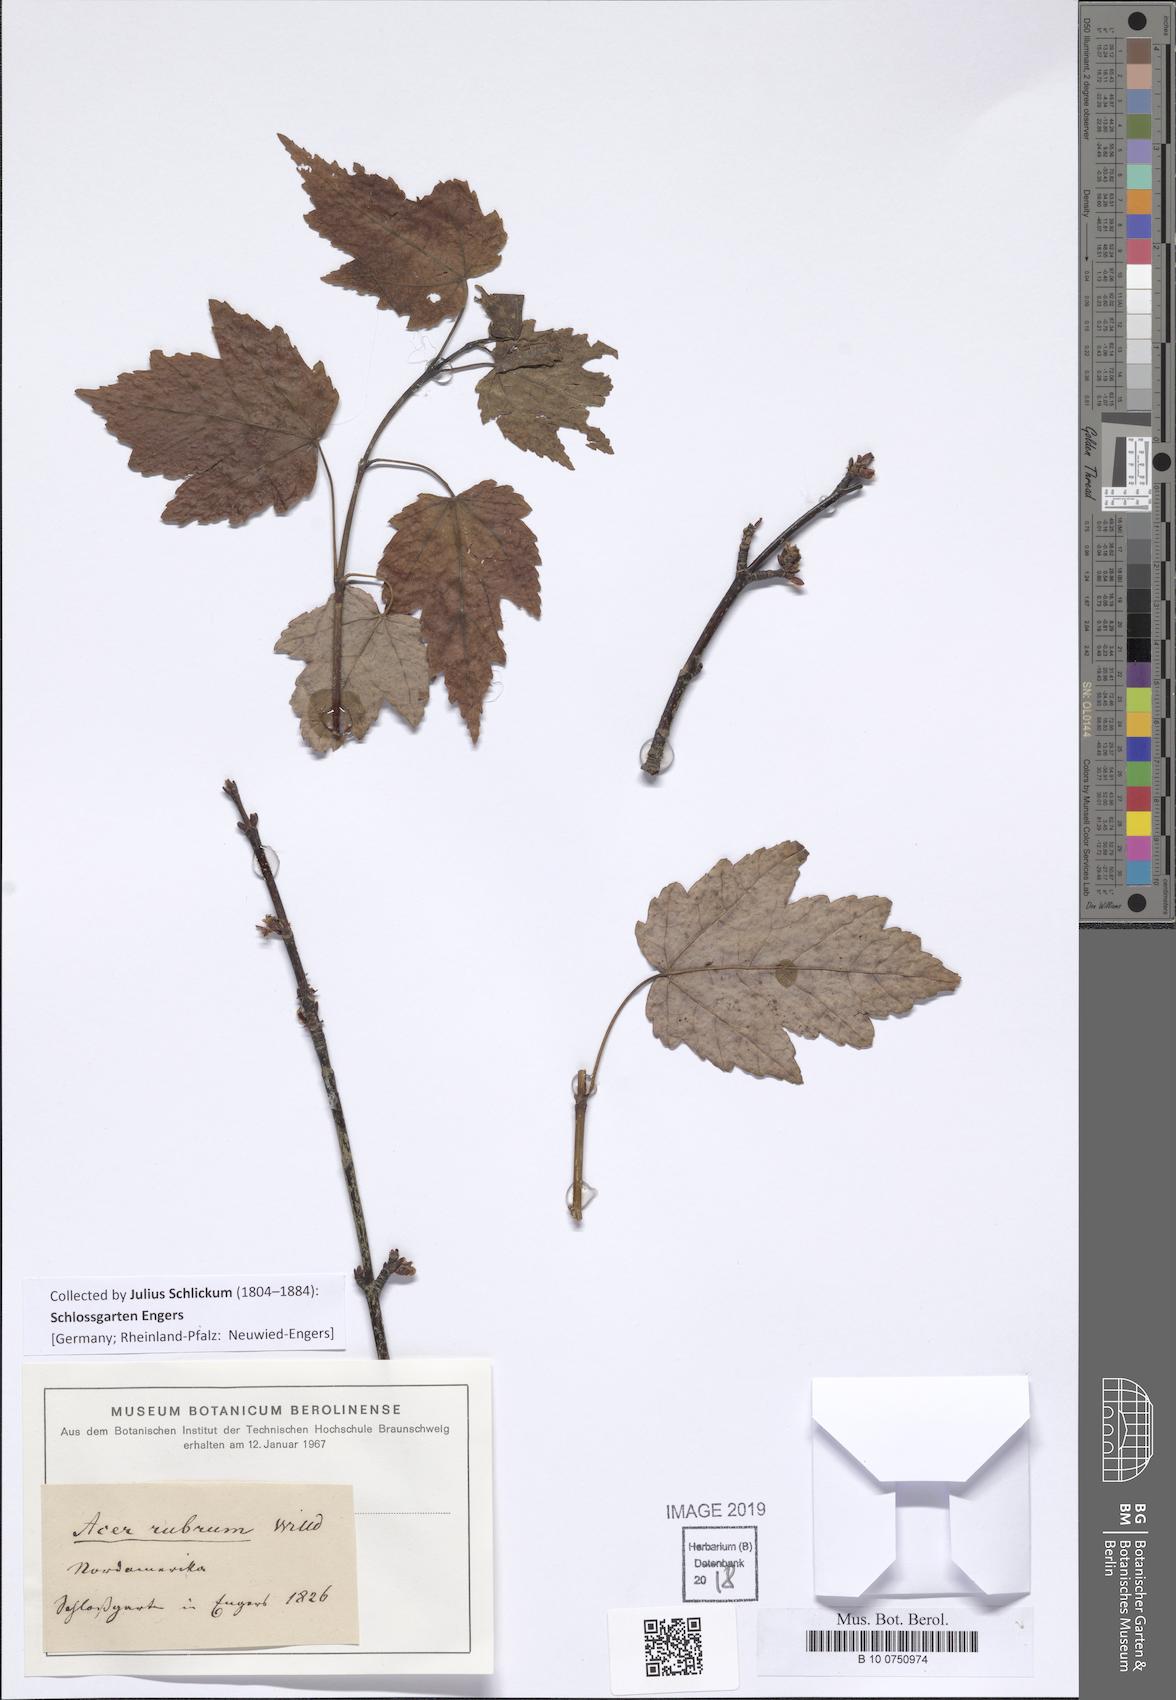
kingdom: Plantae
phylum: Tracheophyta
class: Magnoliopsida
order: Sapindales
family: Sapindaceae
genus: Acer
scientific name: Acer rubrum
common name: Red maple
